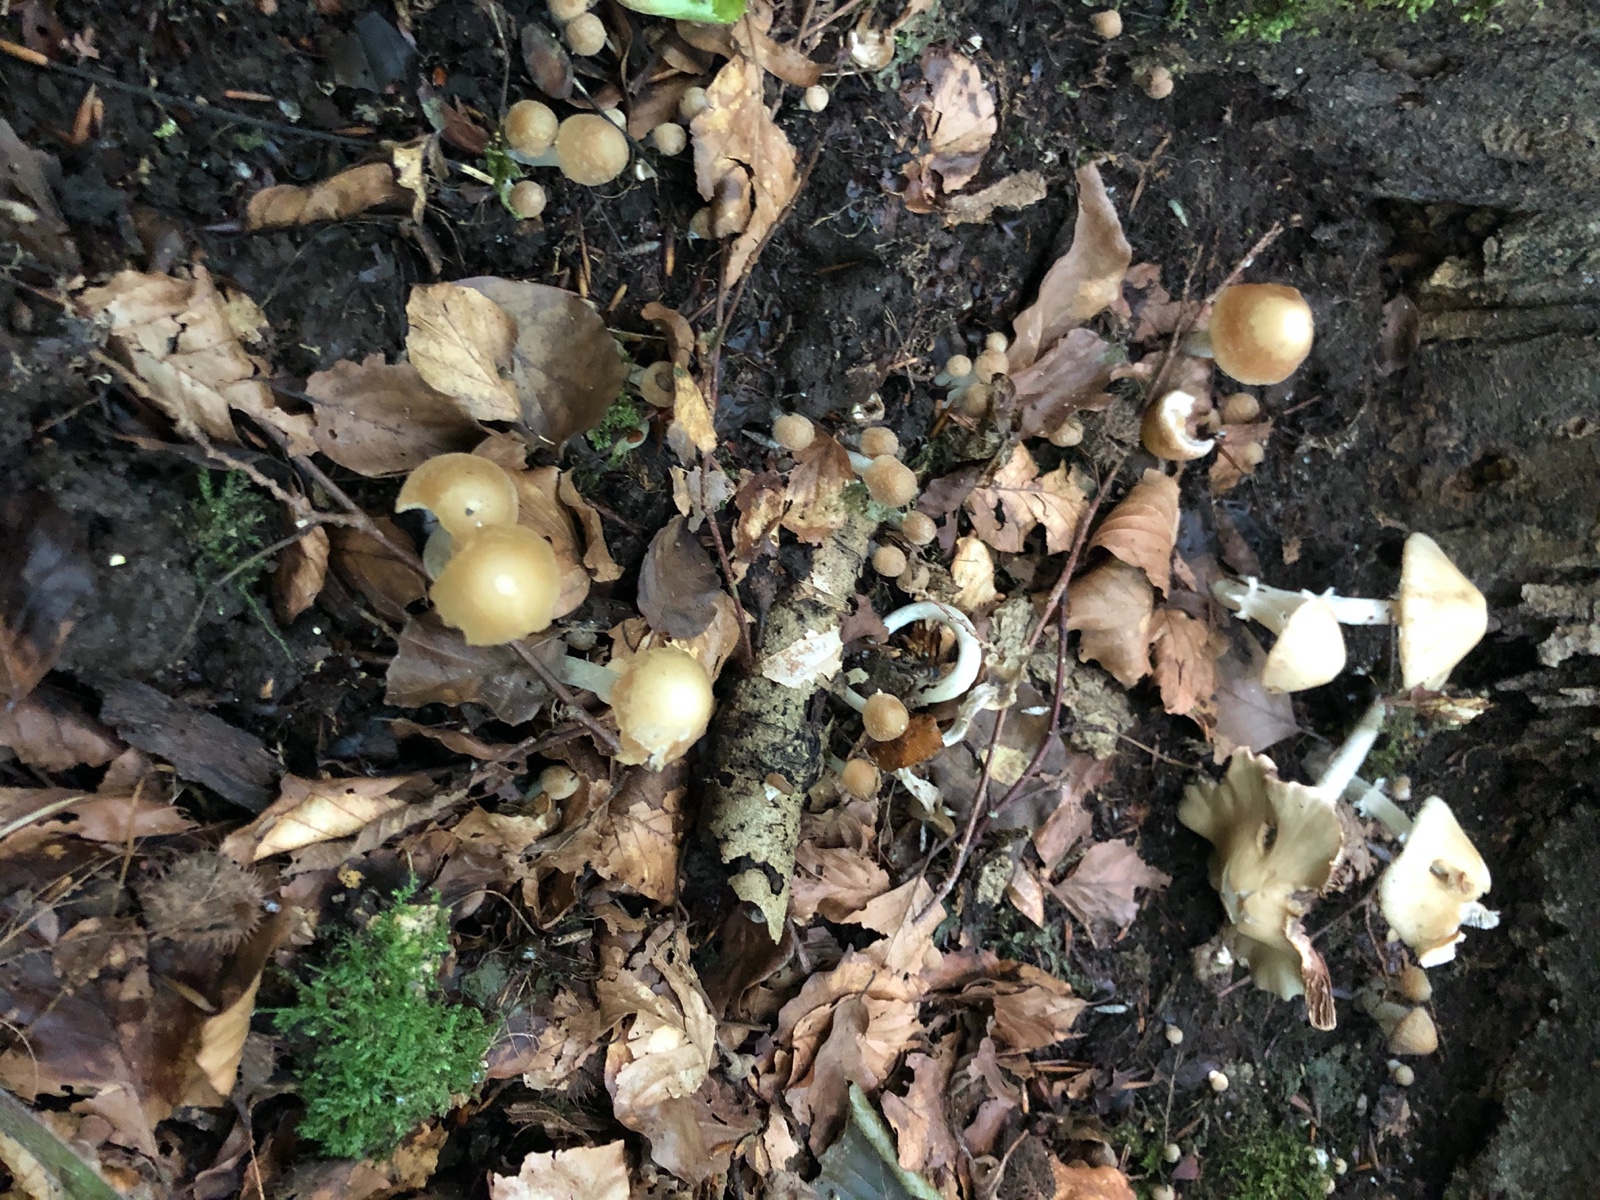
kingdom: Fungi
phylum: Basidiomycota
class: Agaricomycetes
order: Agaricales
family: Psathyrellaceae
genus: Candolleomyces
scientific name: Candolleomyces candolleanus
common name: Candolles mørkhat
